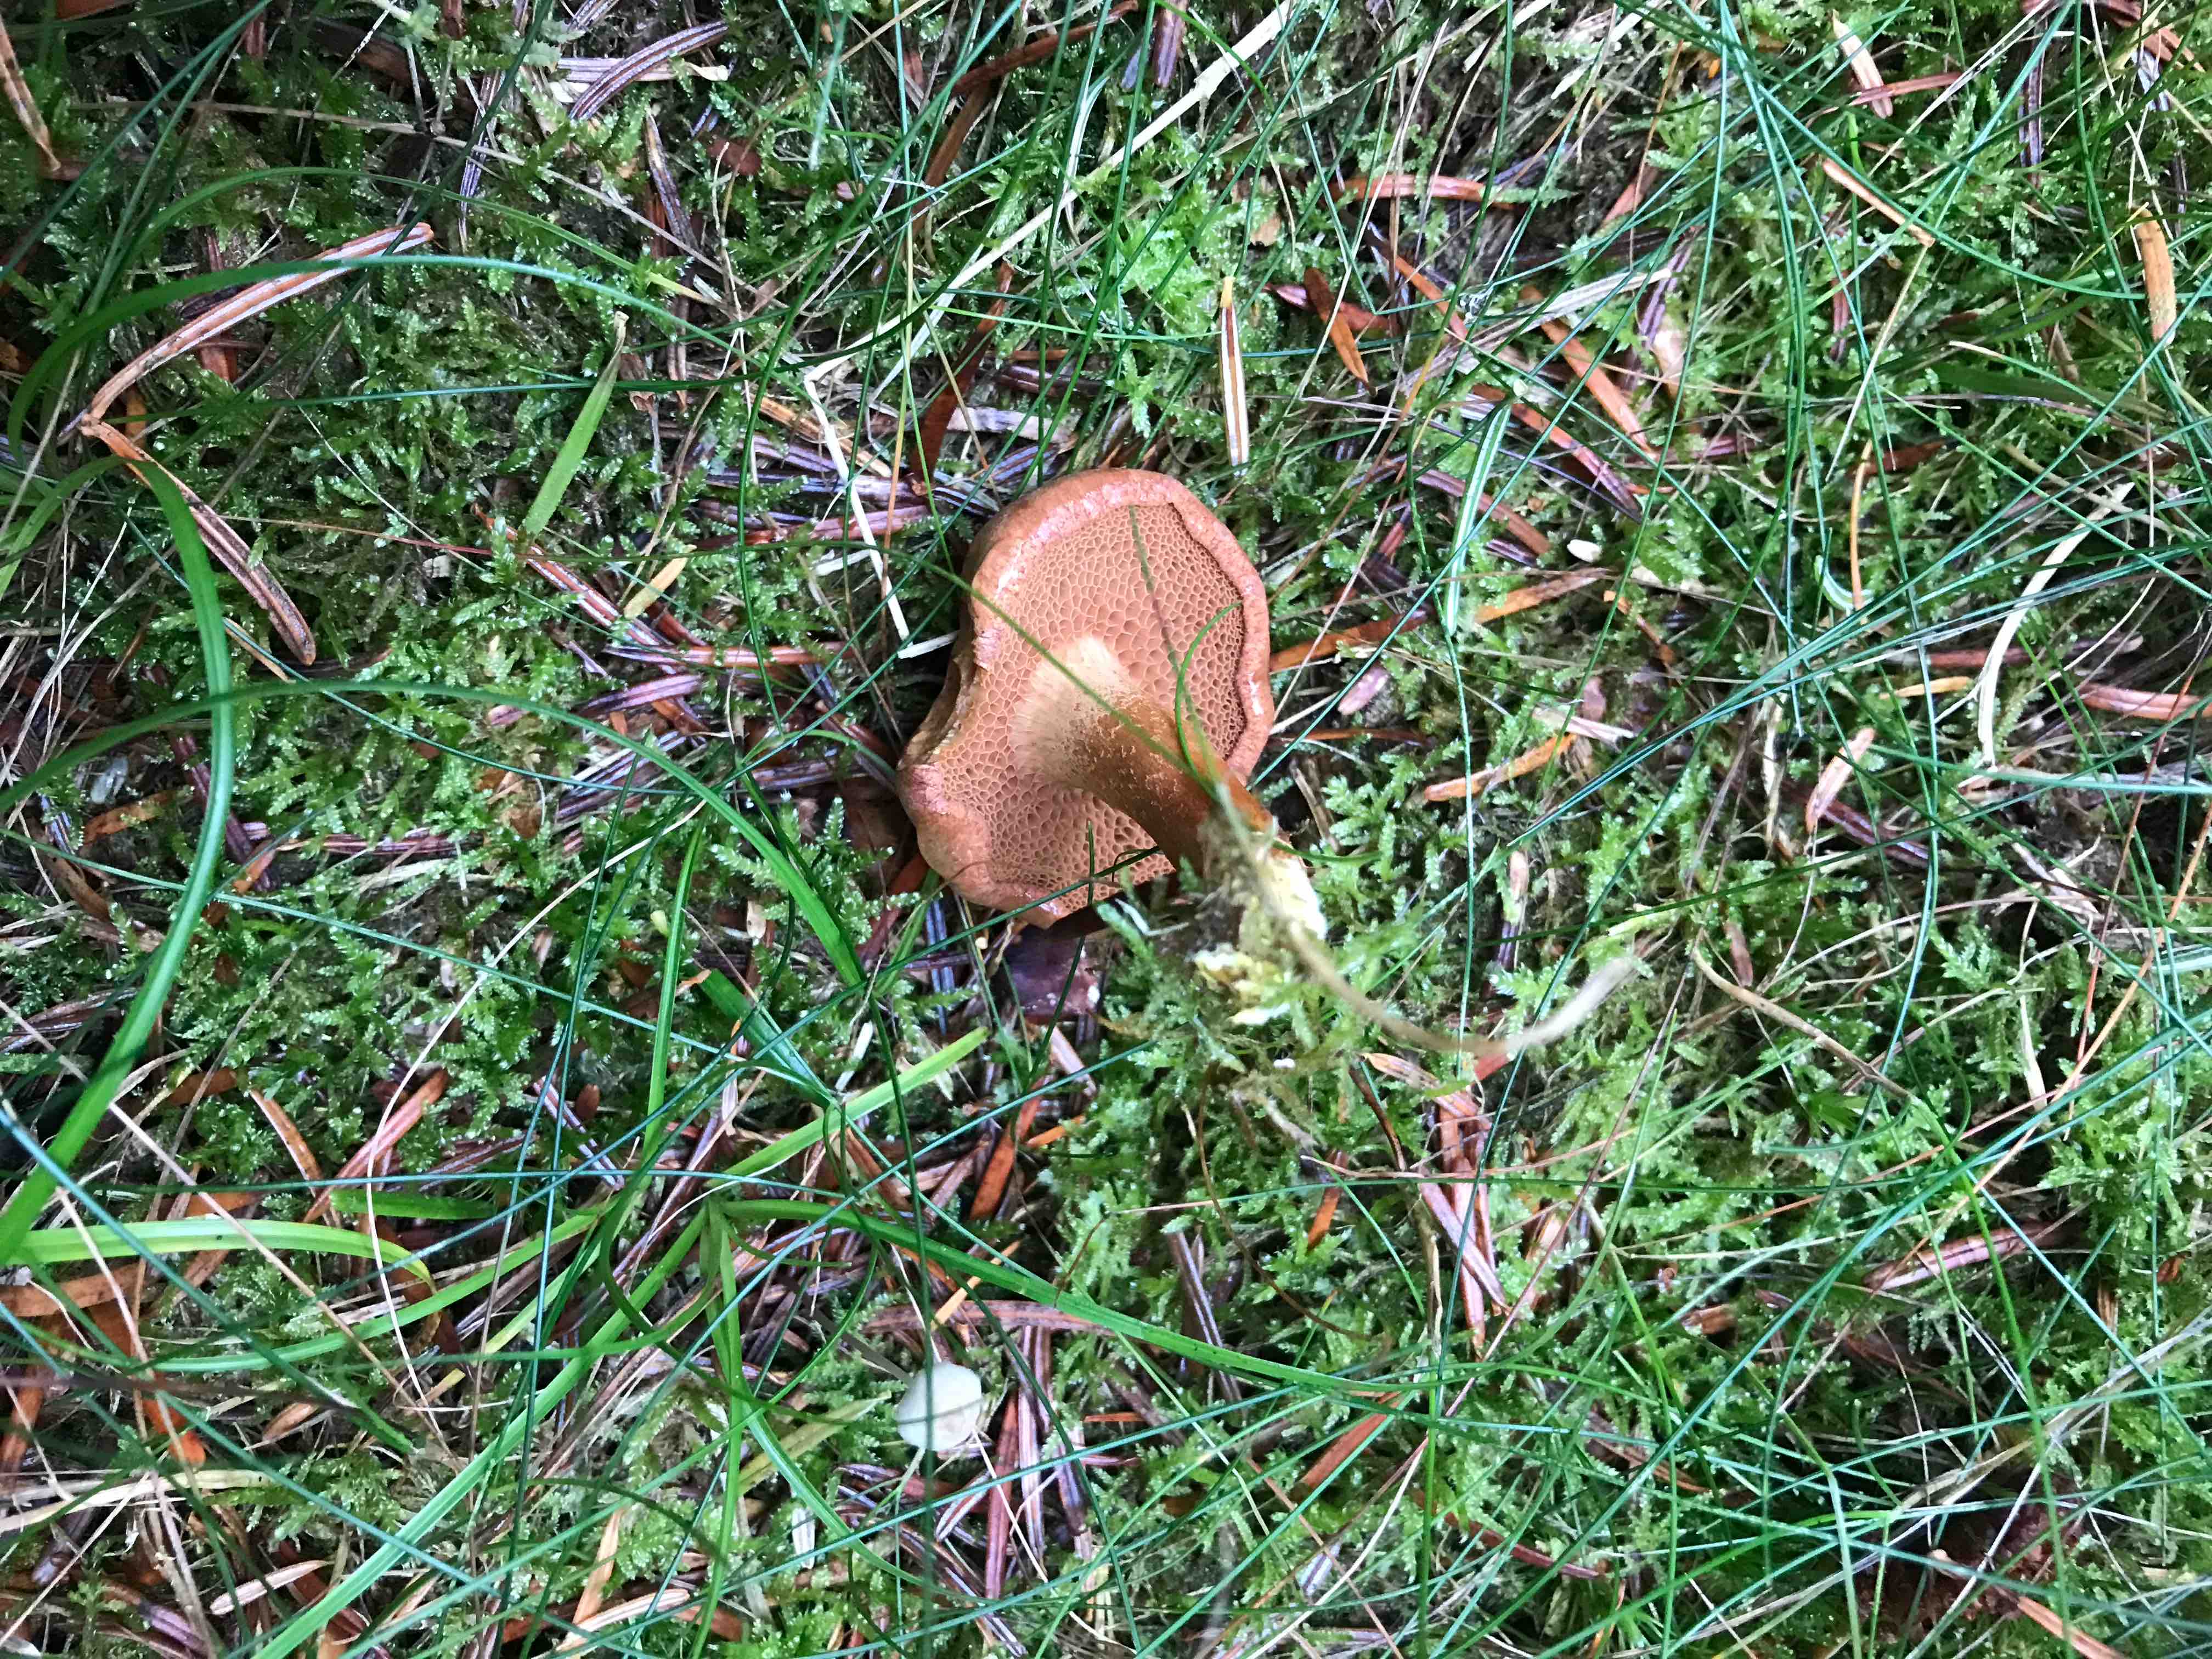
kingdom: Fungi
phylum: Basidiomycota
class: Agaricomycetes
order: Boletales
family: Boletaceae
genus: Chalciporus
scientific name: Chalciporus piperatus
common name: peberrørhat
